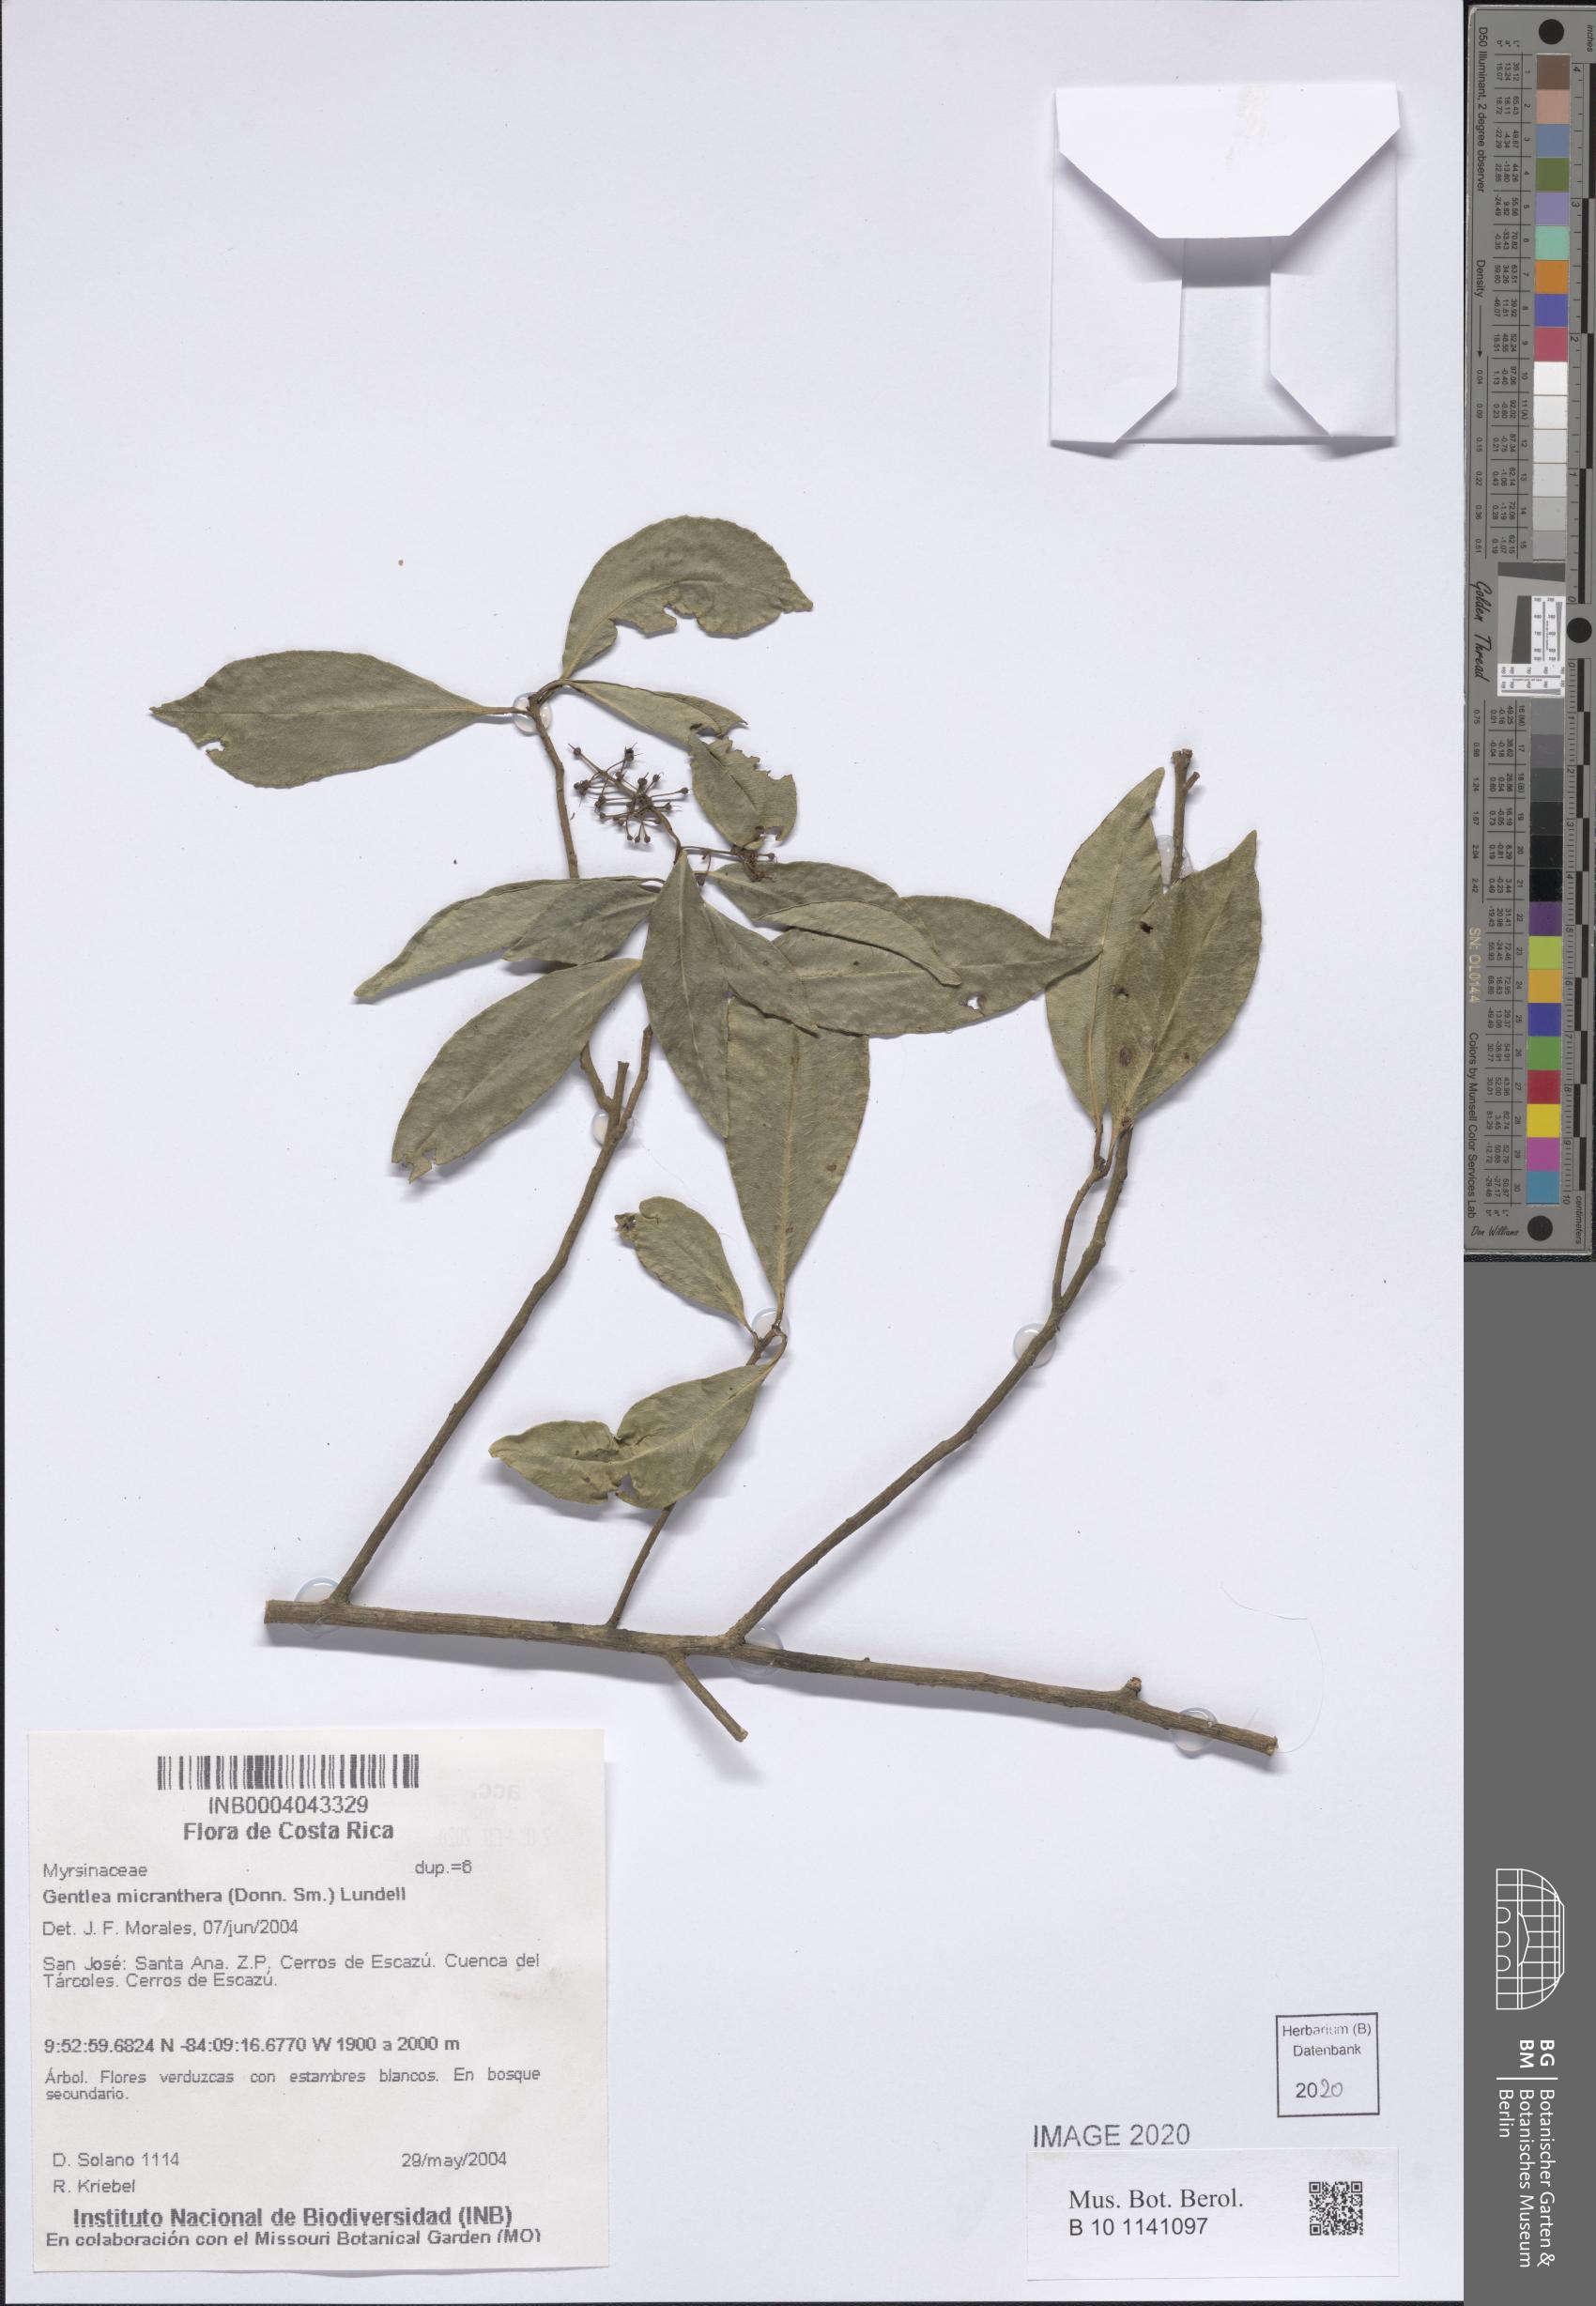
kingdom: Plantae
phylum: Tracheophyta
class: Magnoliopsida
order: Ericales
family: Primulaceae
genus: Gentlea
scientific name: Gentlea micranthera
